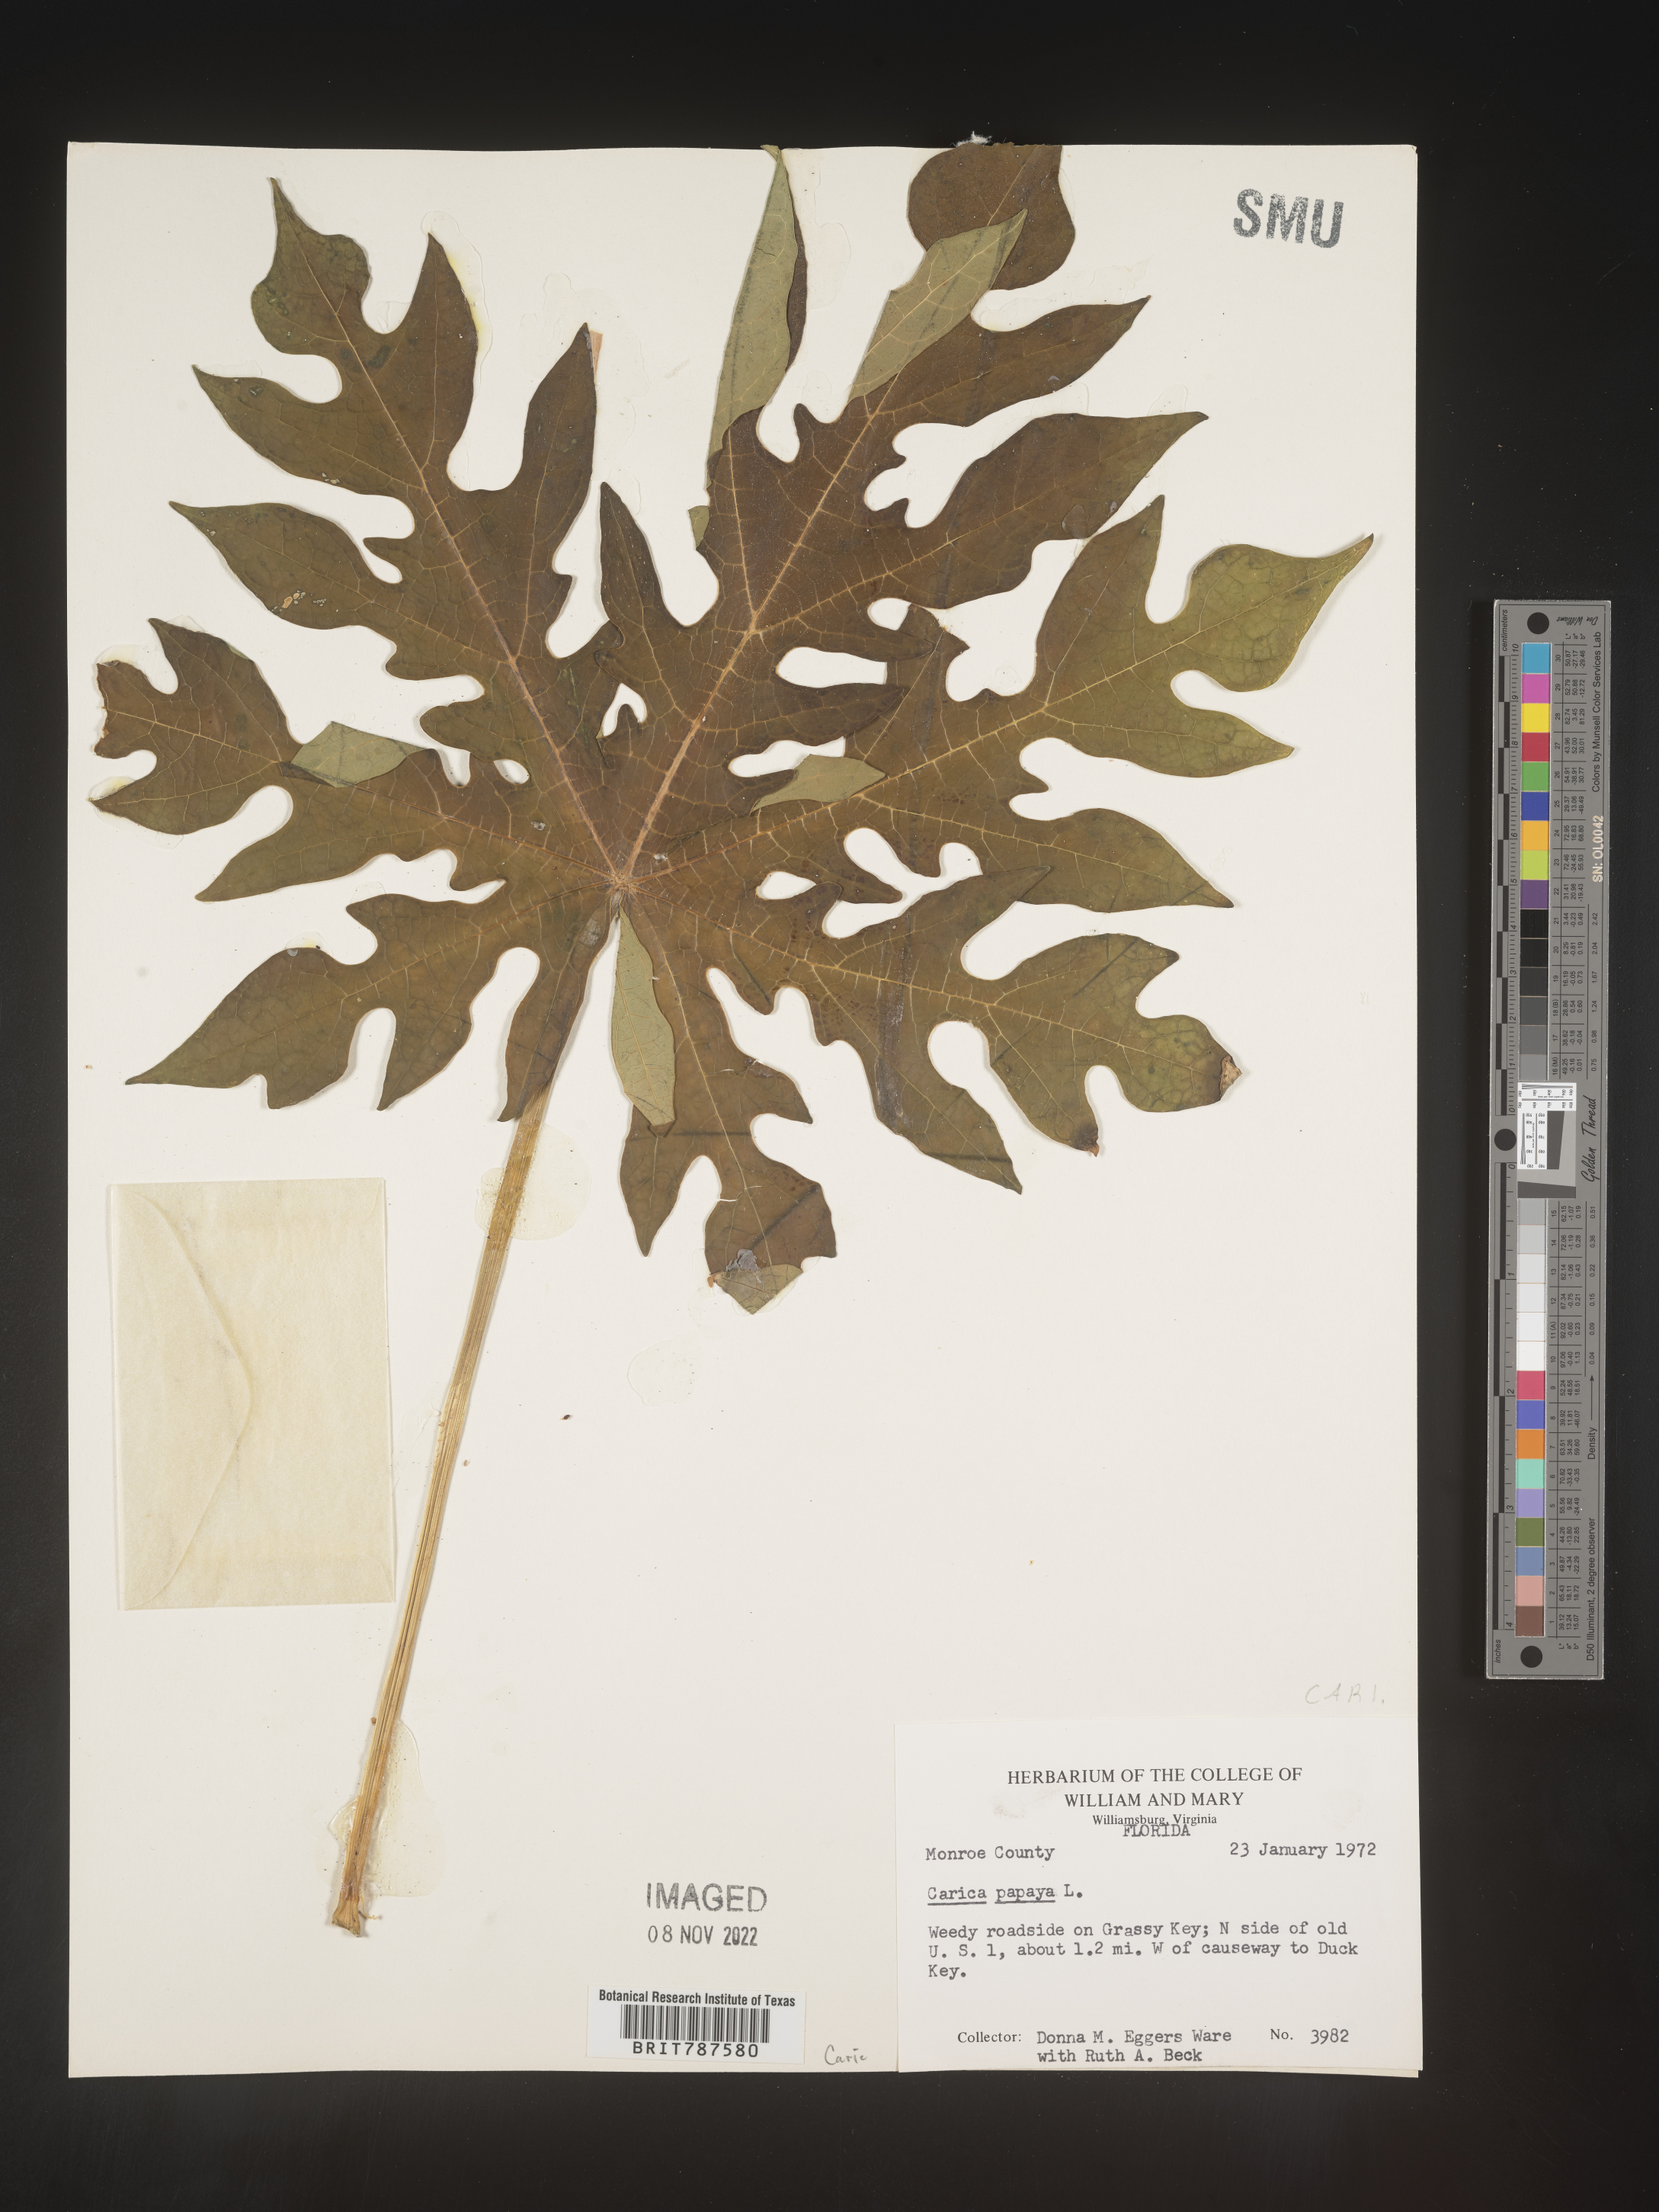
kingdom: Plantae
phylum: Tracheophyta
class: Magnoliopsida
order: Brassicales
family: Caricaceae
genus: Carica
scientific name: Carica
